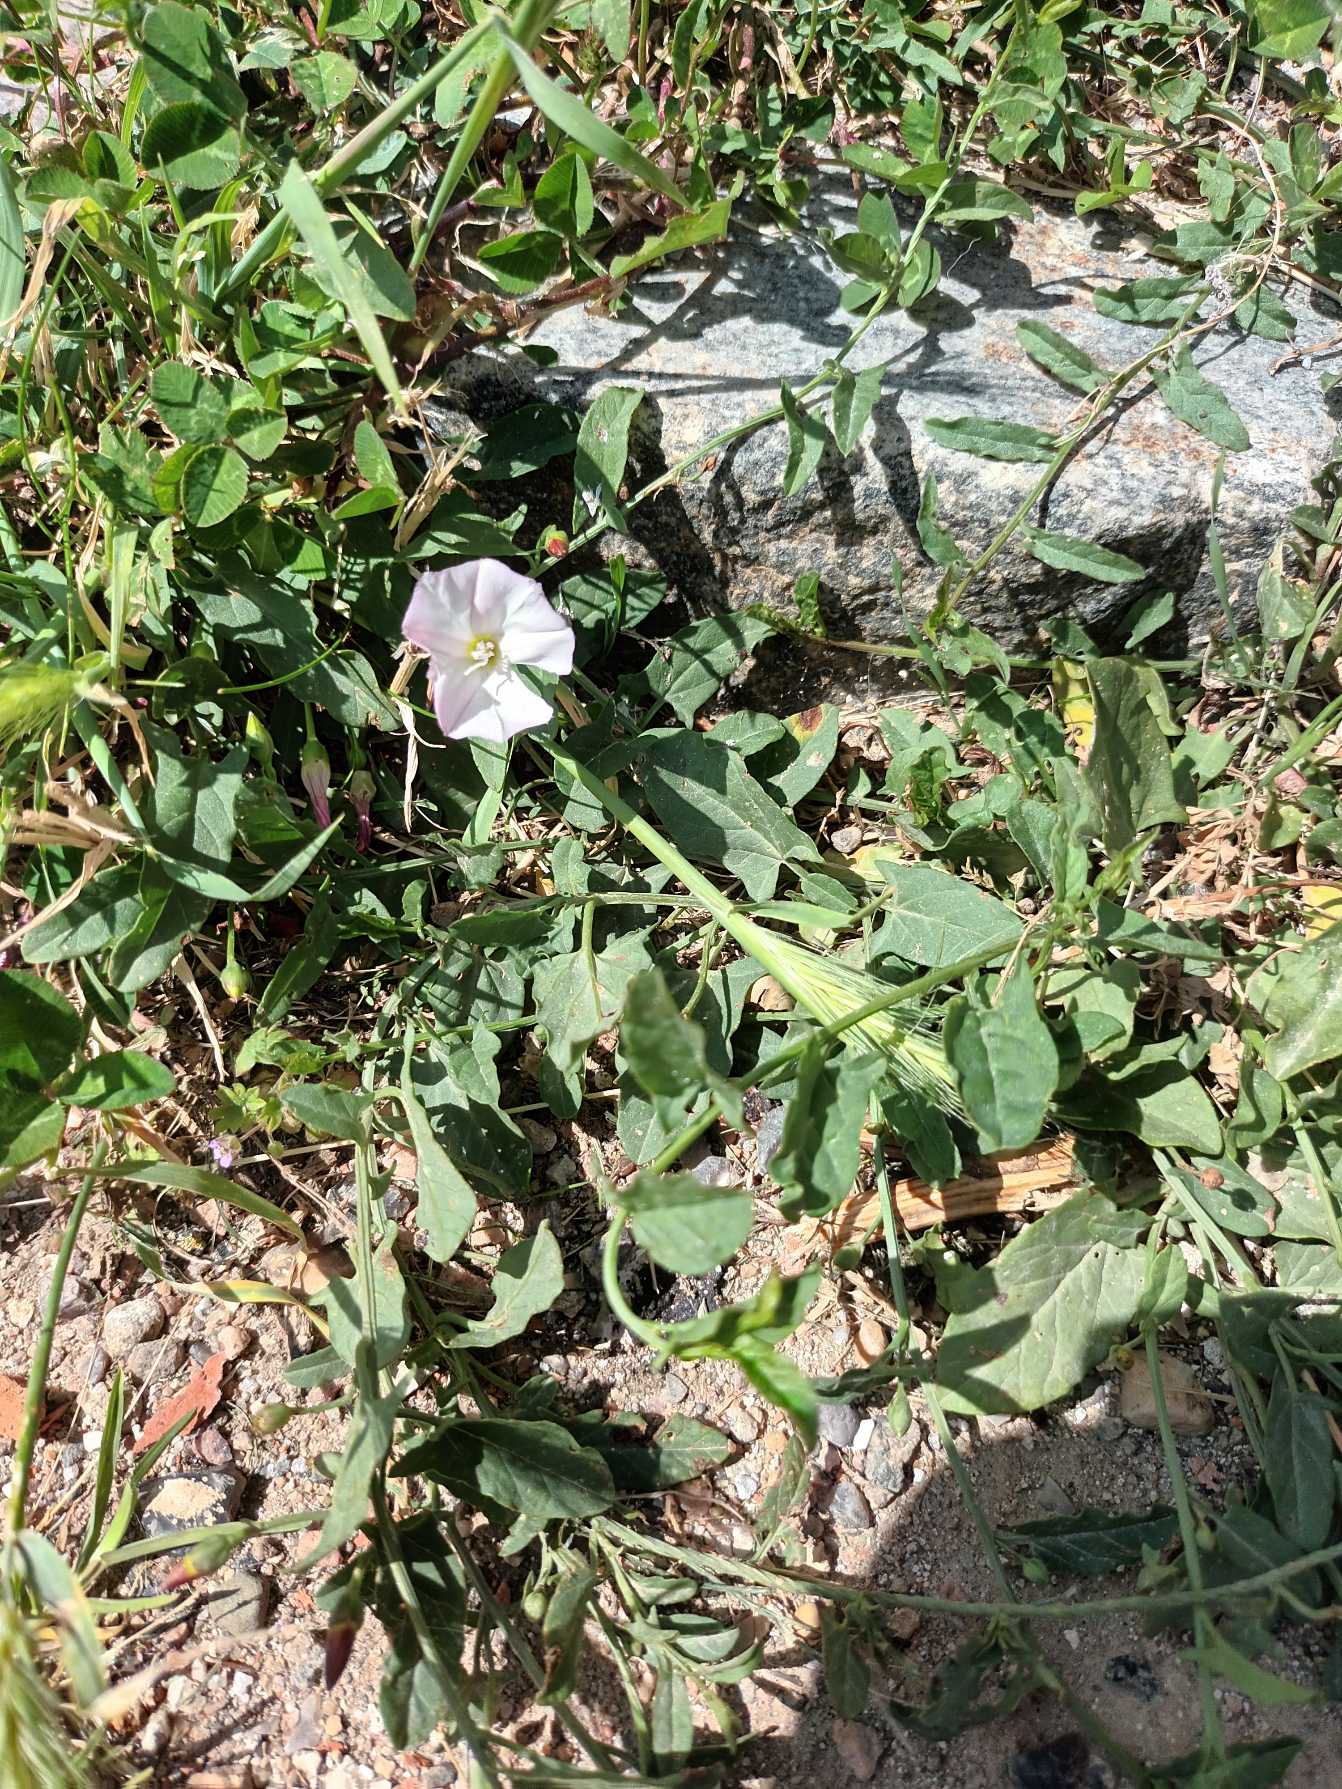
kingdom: Plantae
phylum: Tracheophyta
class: Magnoliopsida
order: Solanales
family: Convolvulaceae
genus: Convolvulus
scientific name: Convolvulus arvensis
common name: Ager-snerle
